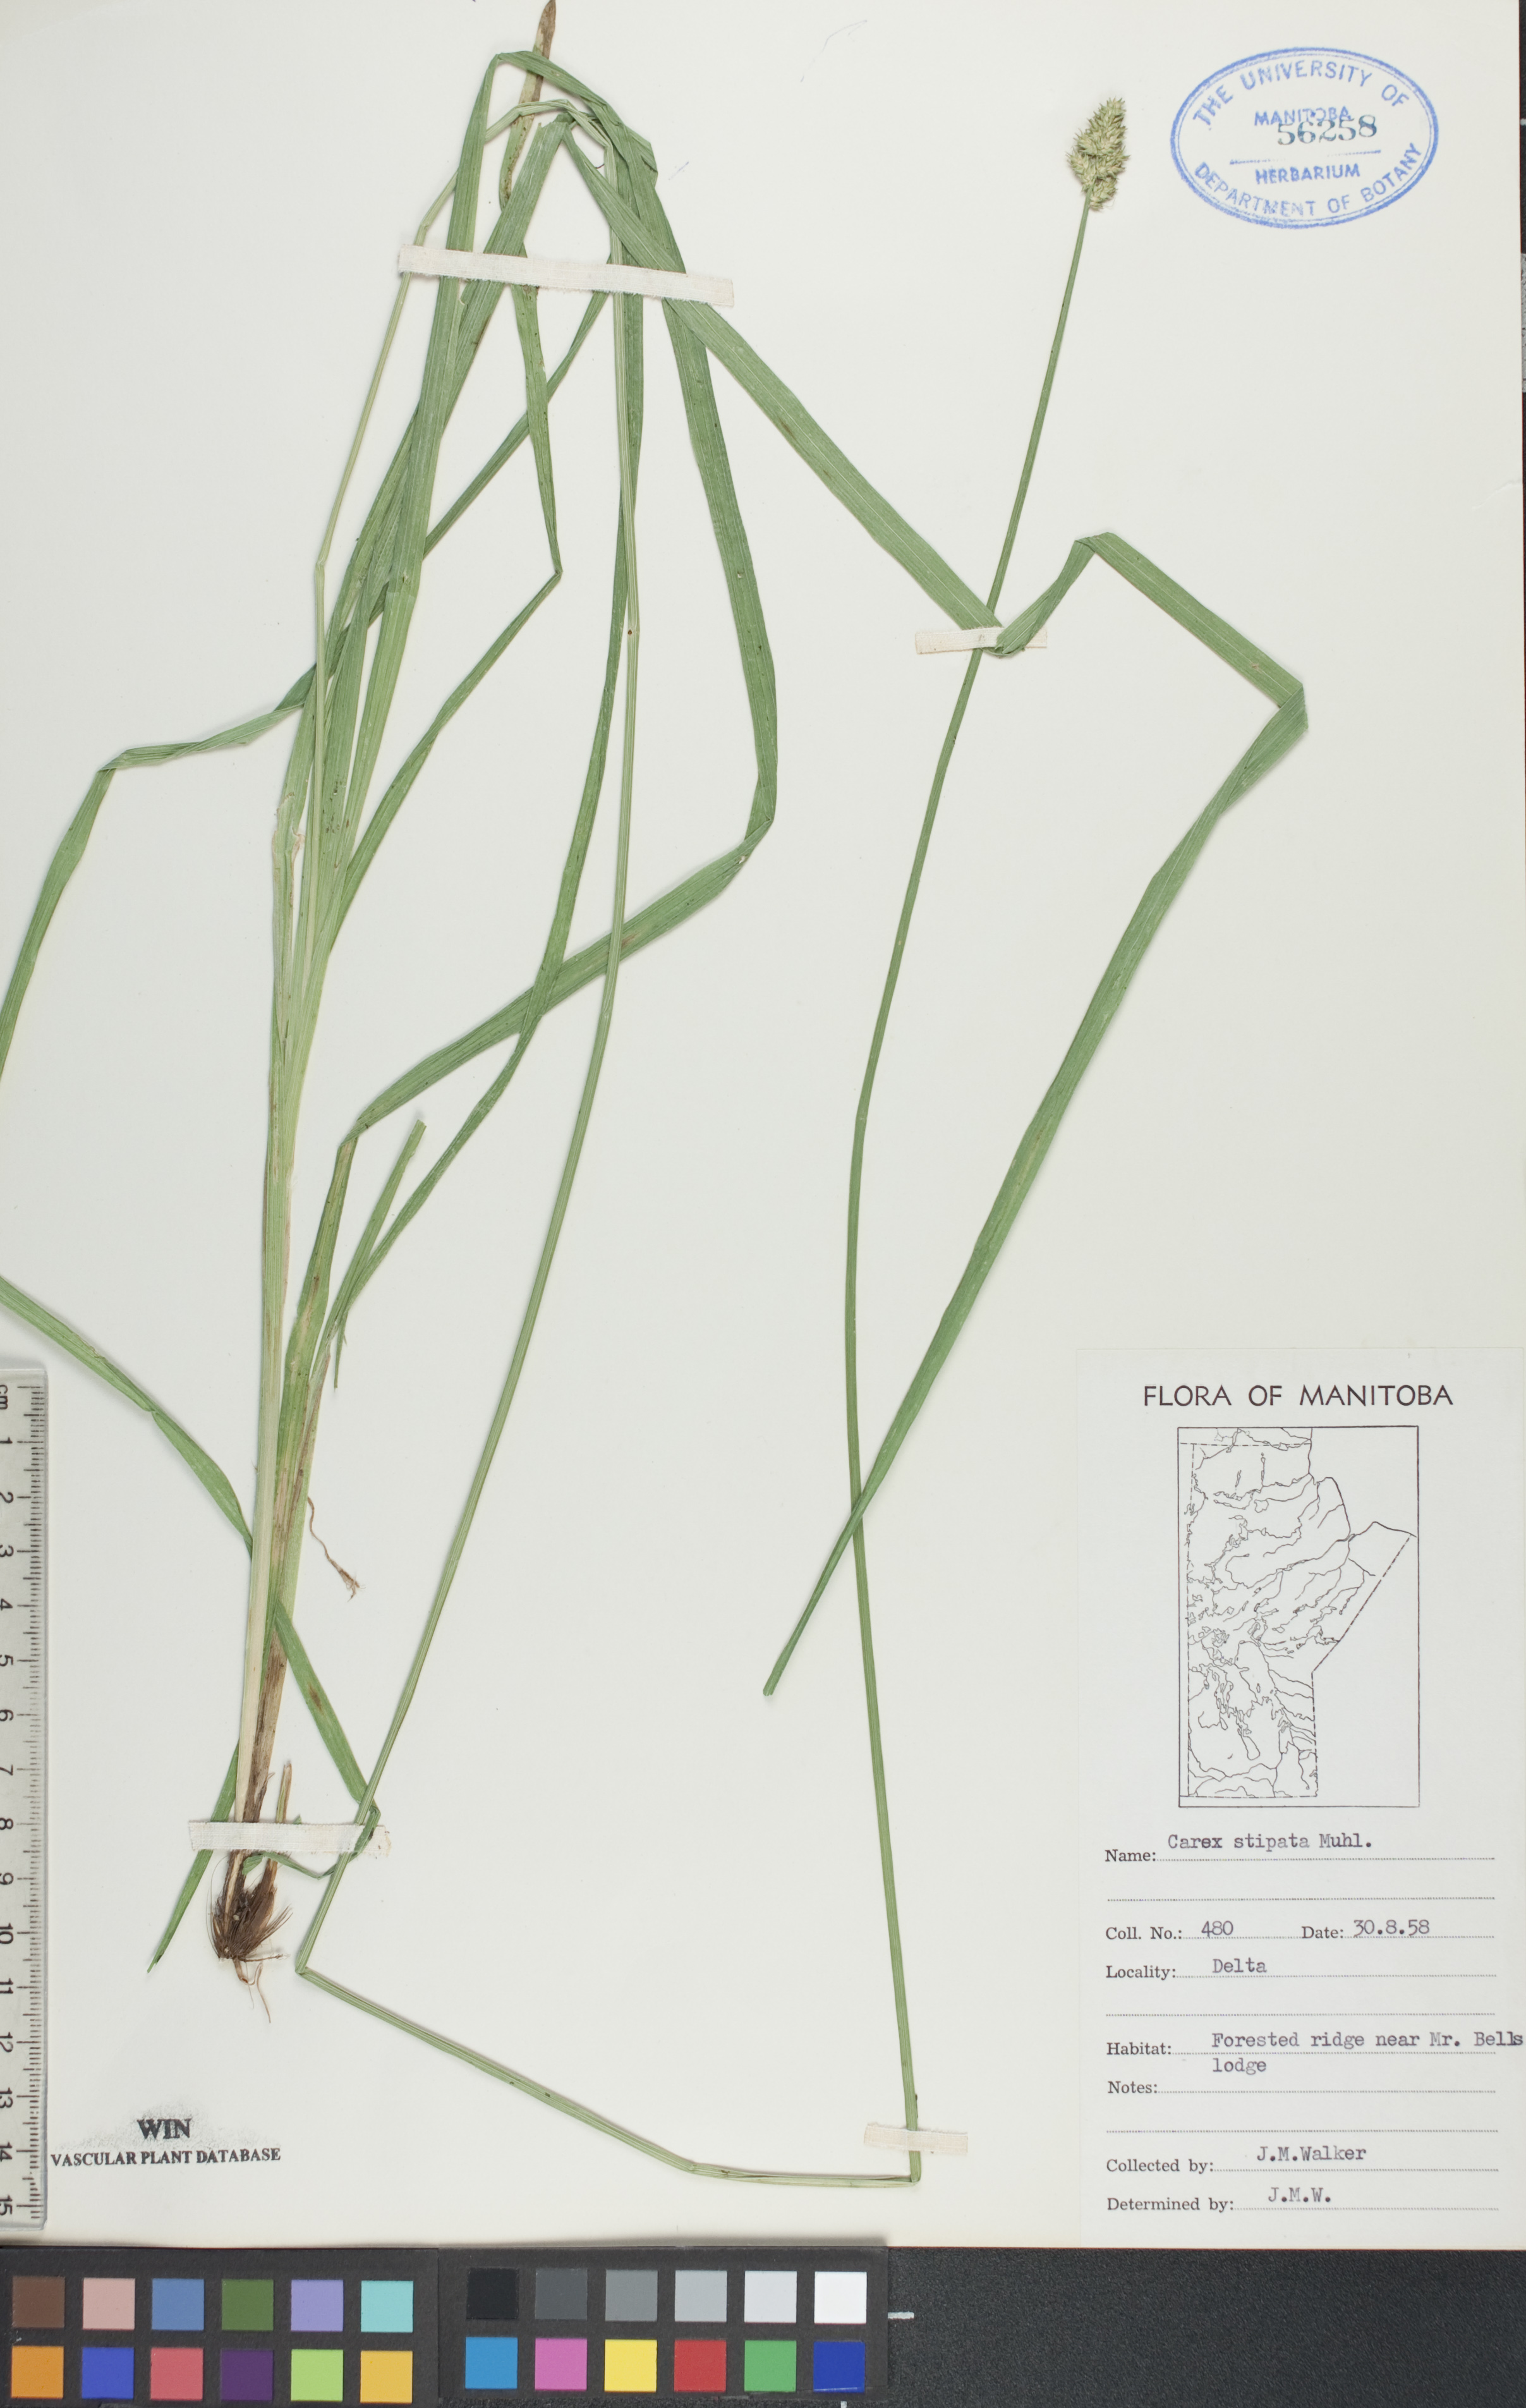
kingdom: Plantae
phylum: Tracheophyta
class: Liliopsida
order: Poales
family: Cyperaceae
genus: Carex
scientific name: Carex stipata
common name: Awl-fruited sedge
